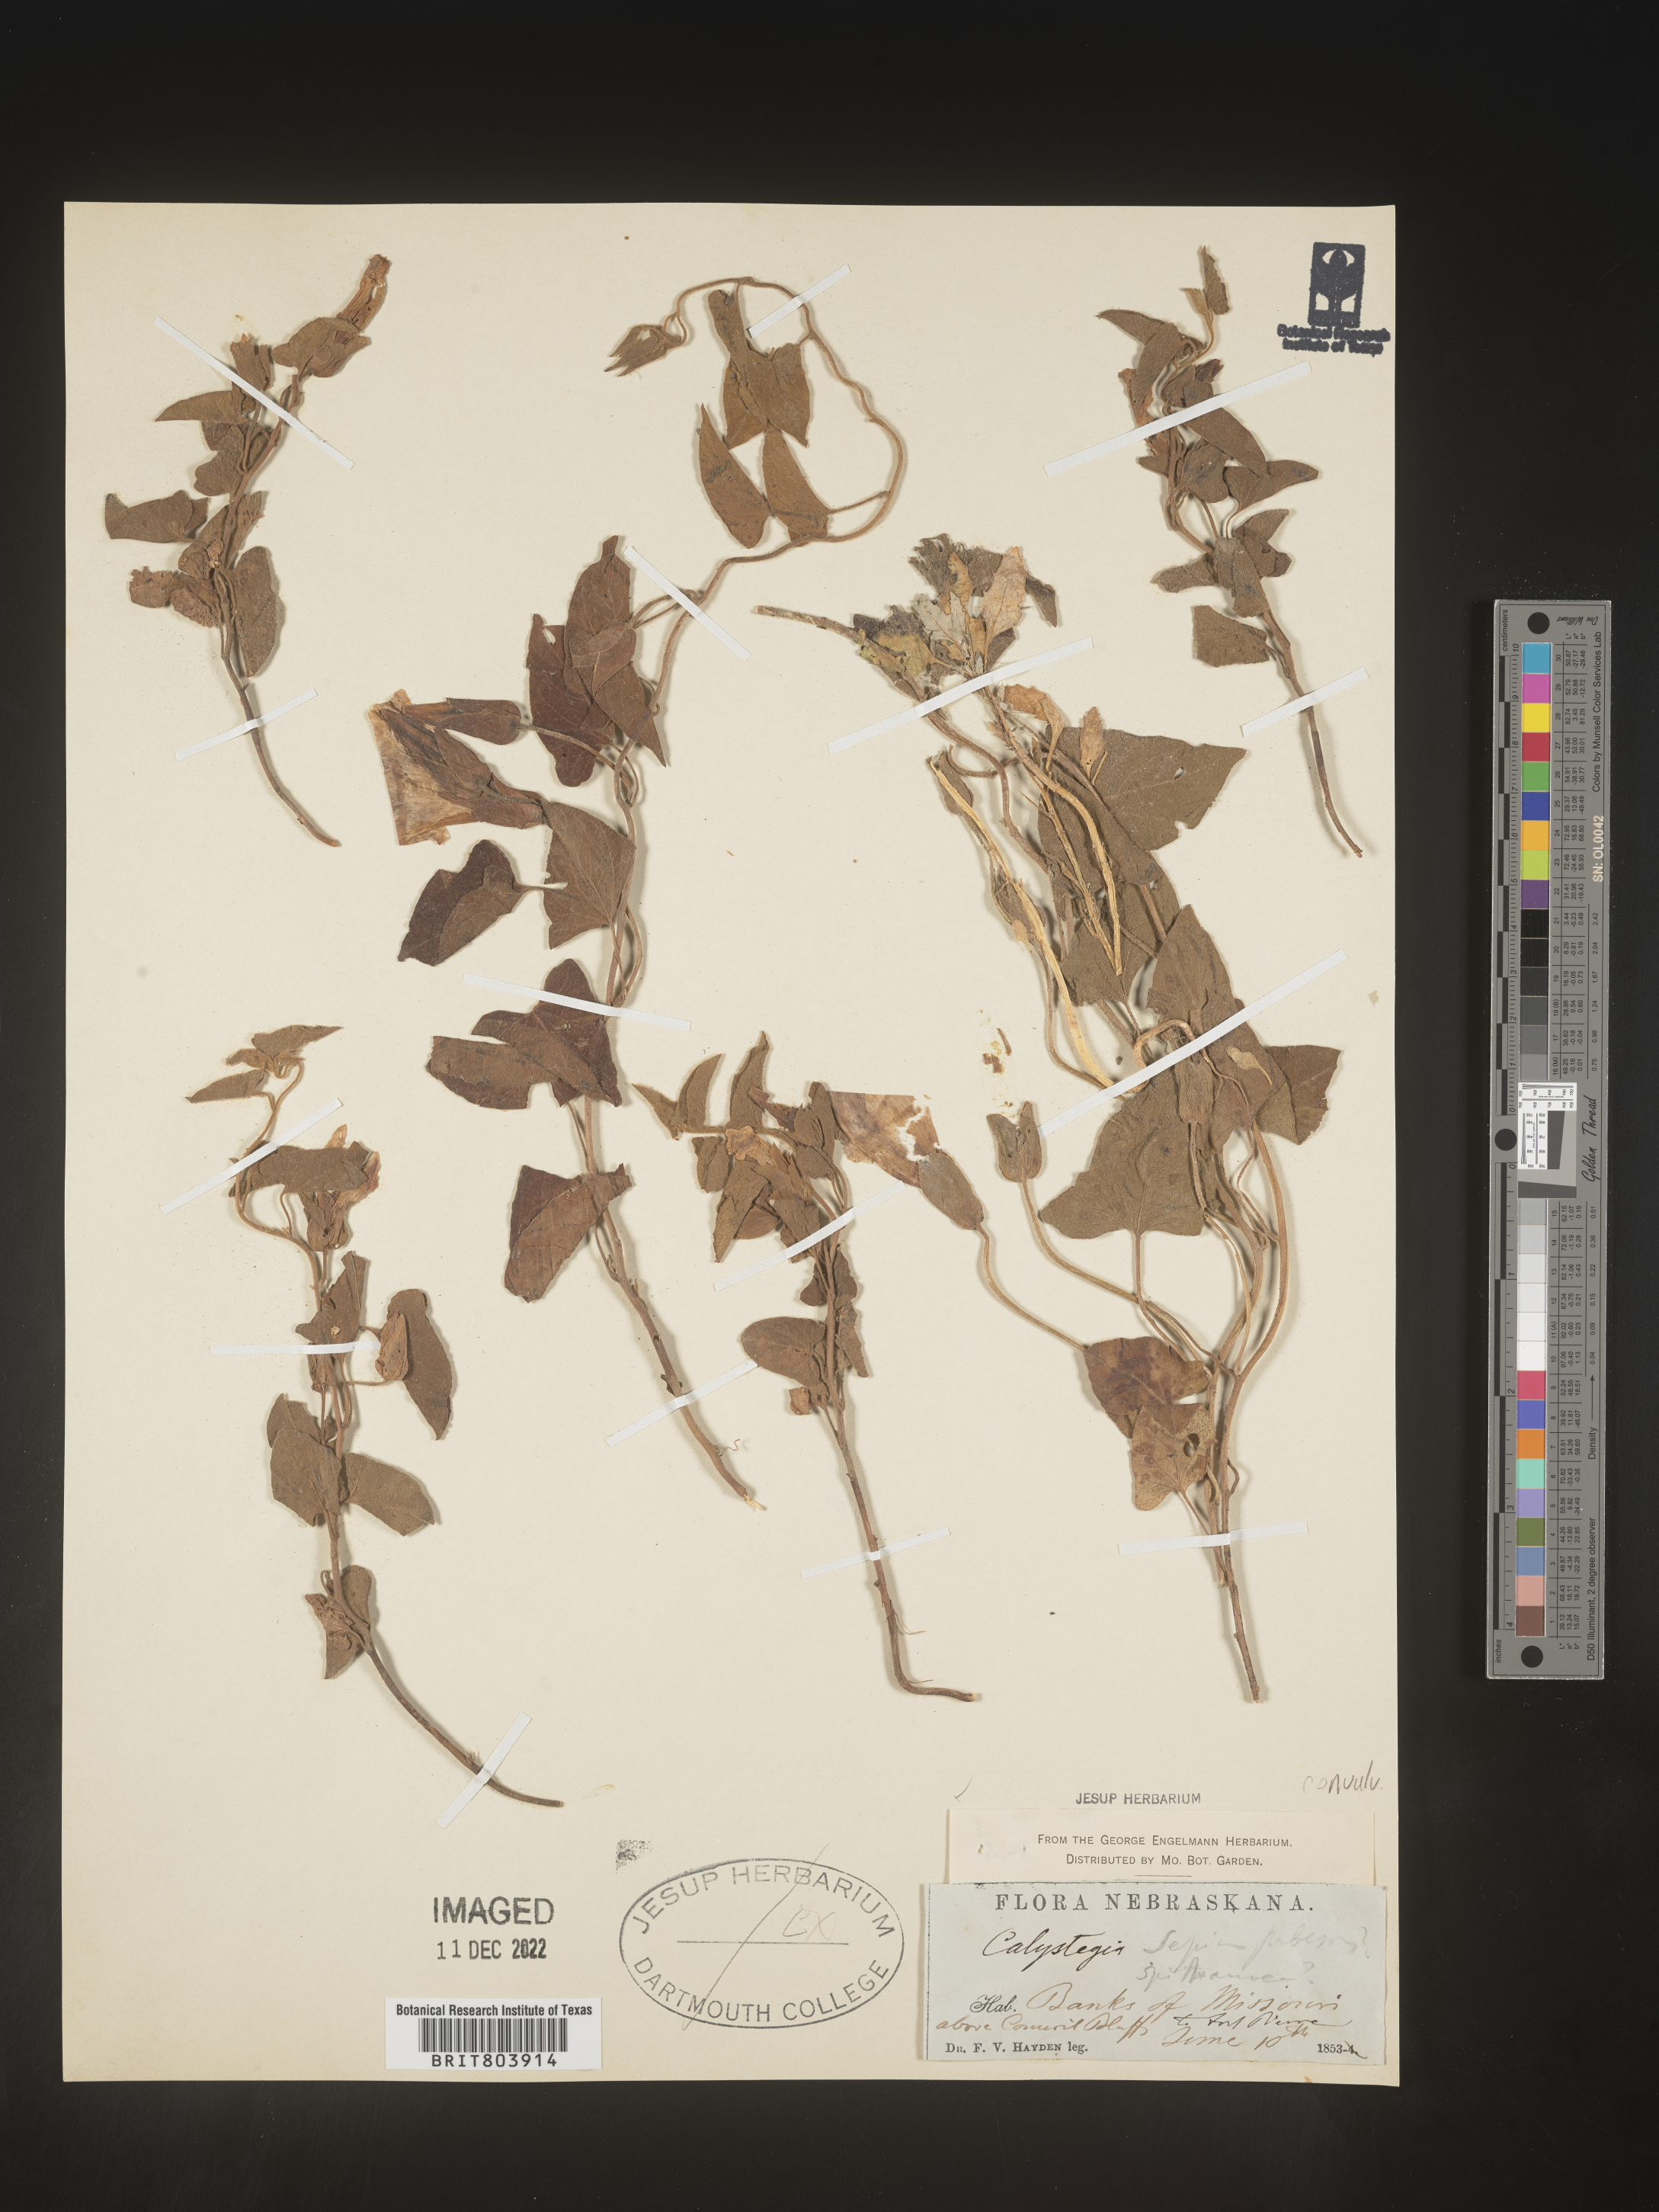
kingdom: Plantae
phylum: Tracheophyta
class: Magnoliopsida
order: Solanales
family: Convolvulaceae
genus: Calystegia
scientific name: Calystegia sepium
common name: Hedge bindweed
